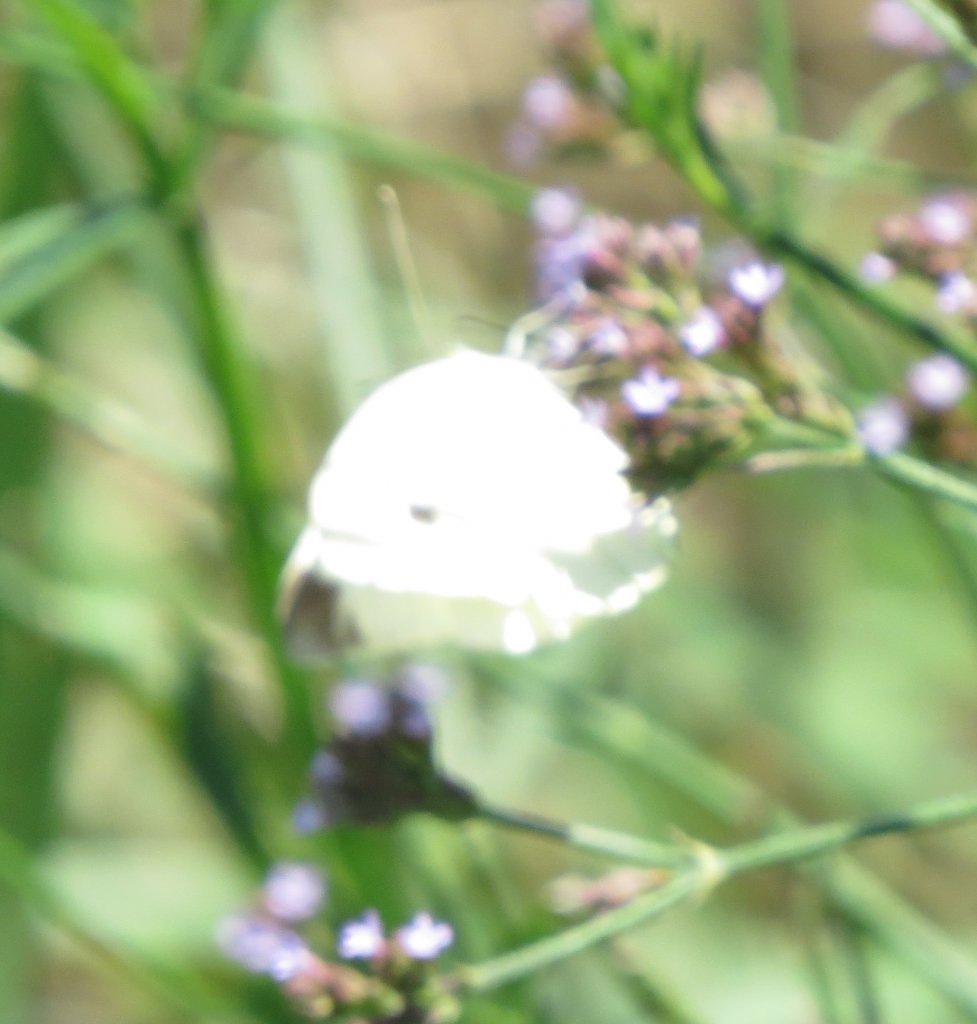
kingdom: Animalia
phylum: Arthropoda
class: Insecta
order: Lepidoptera
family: Pieridae
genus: Pieris
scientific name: Pieris rapae
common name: Cabbage White
